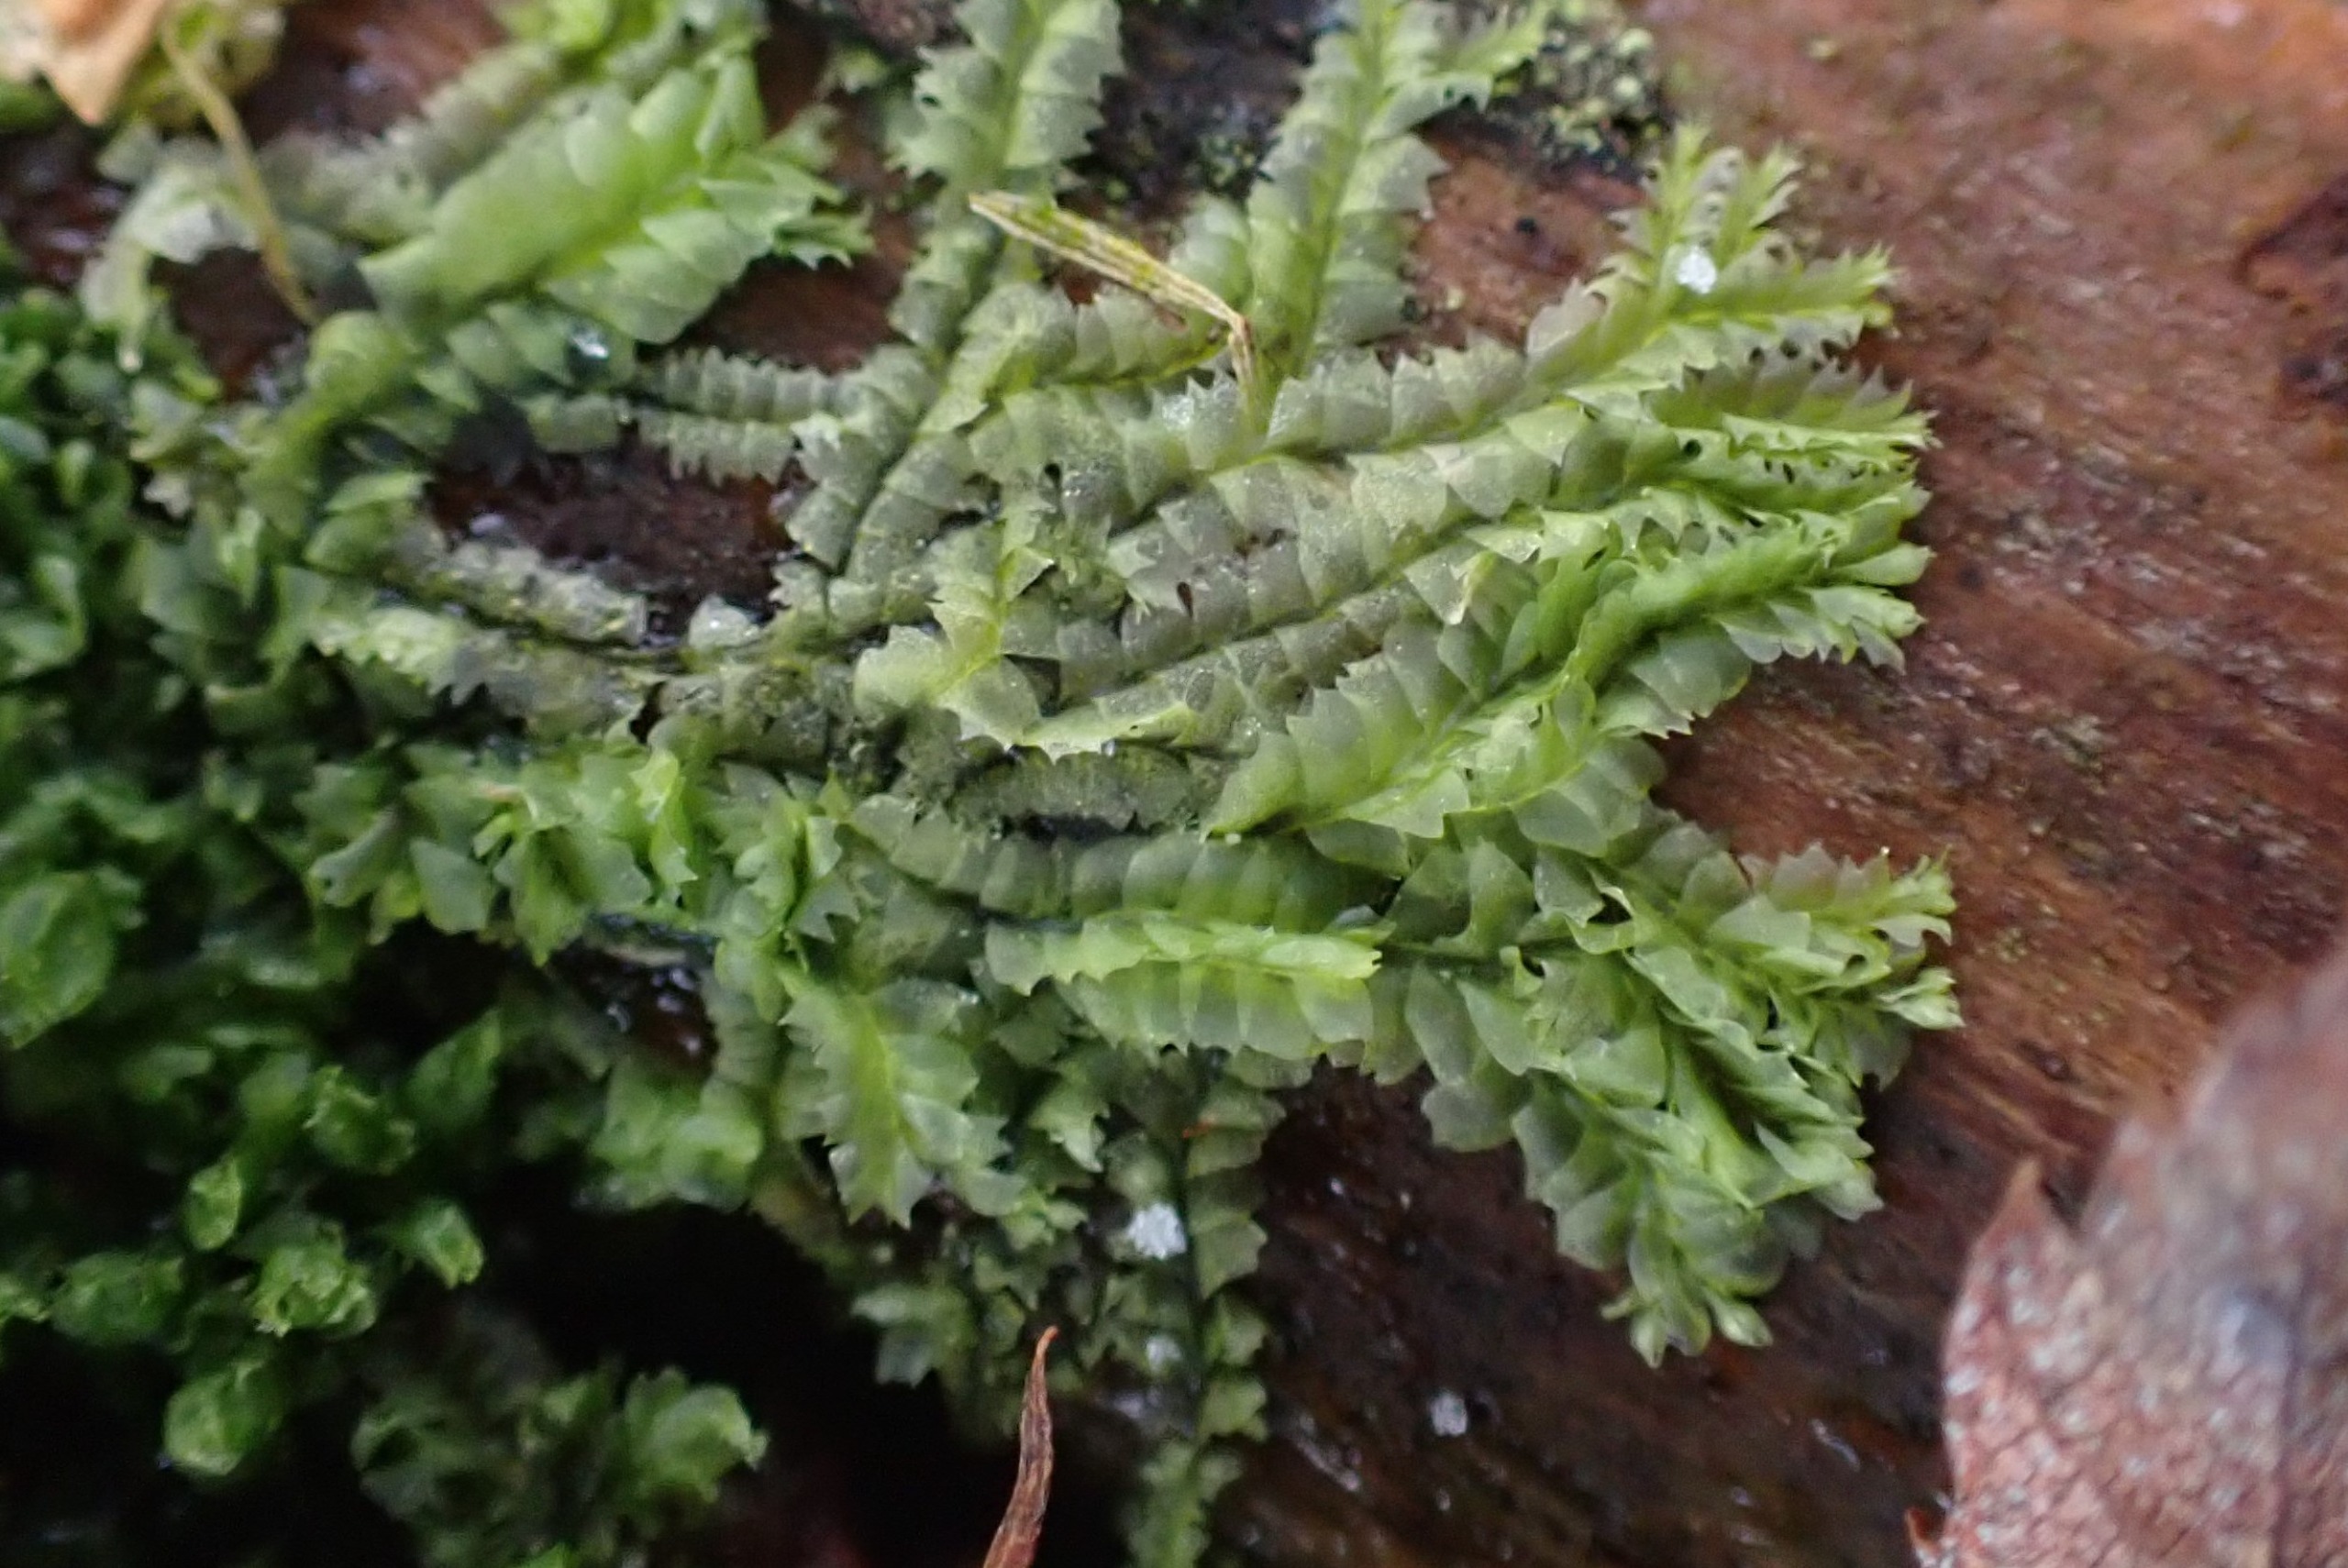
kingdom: Plantae
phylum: Marchantiophyta
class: Jungermanniopsida
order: Jungermanniales
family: Lophocoleaceae
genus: Lophocolea
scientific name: Lophocolea bidentata
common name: Sylspidset kamsvøb
